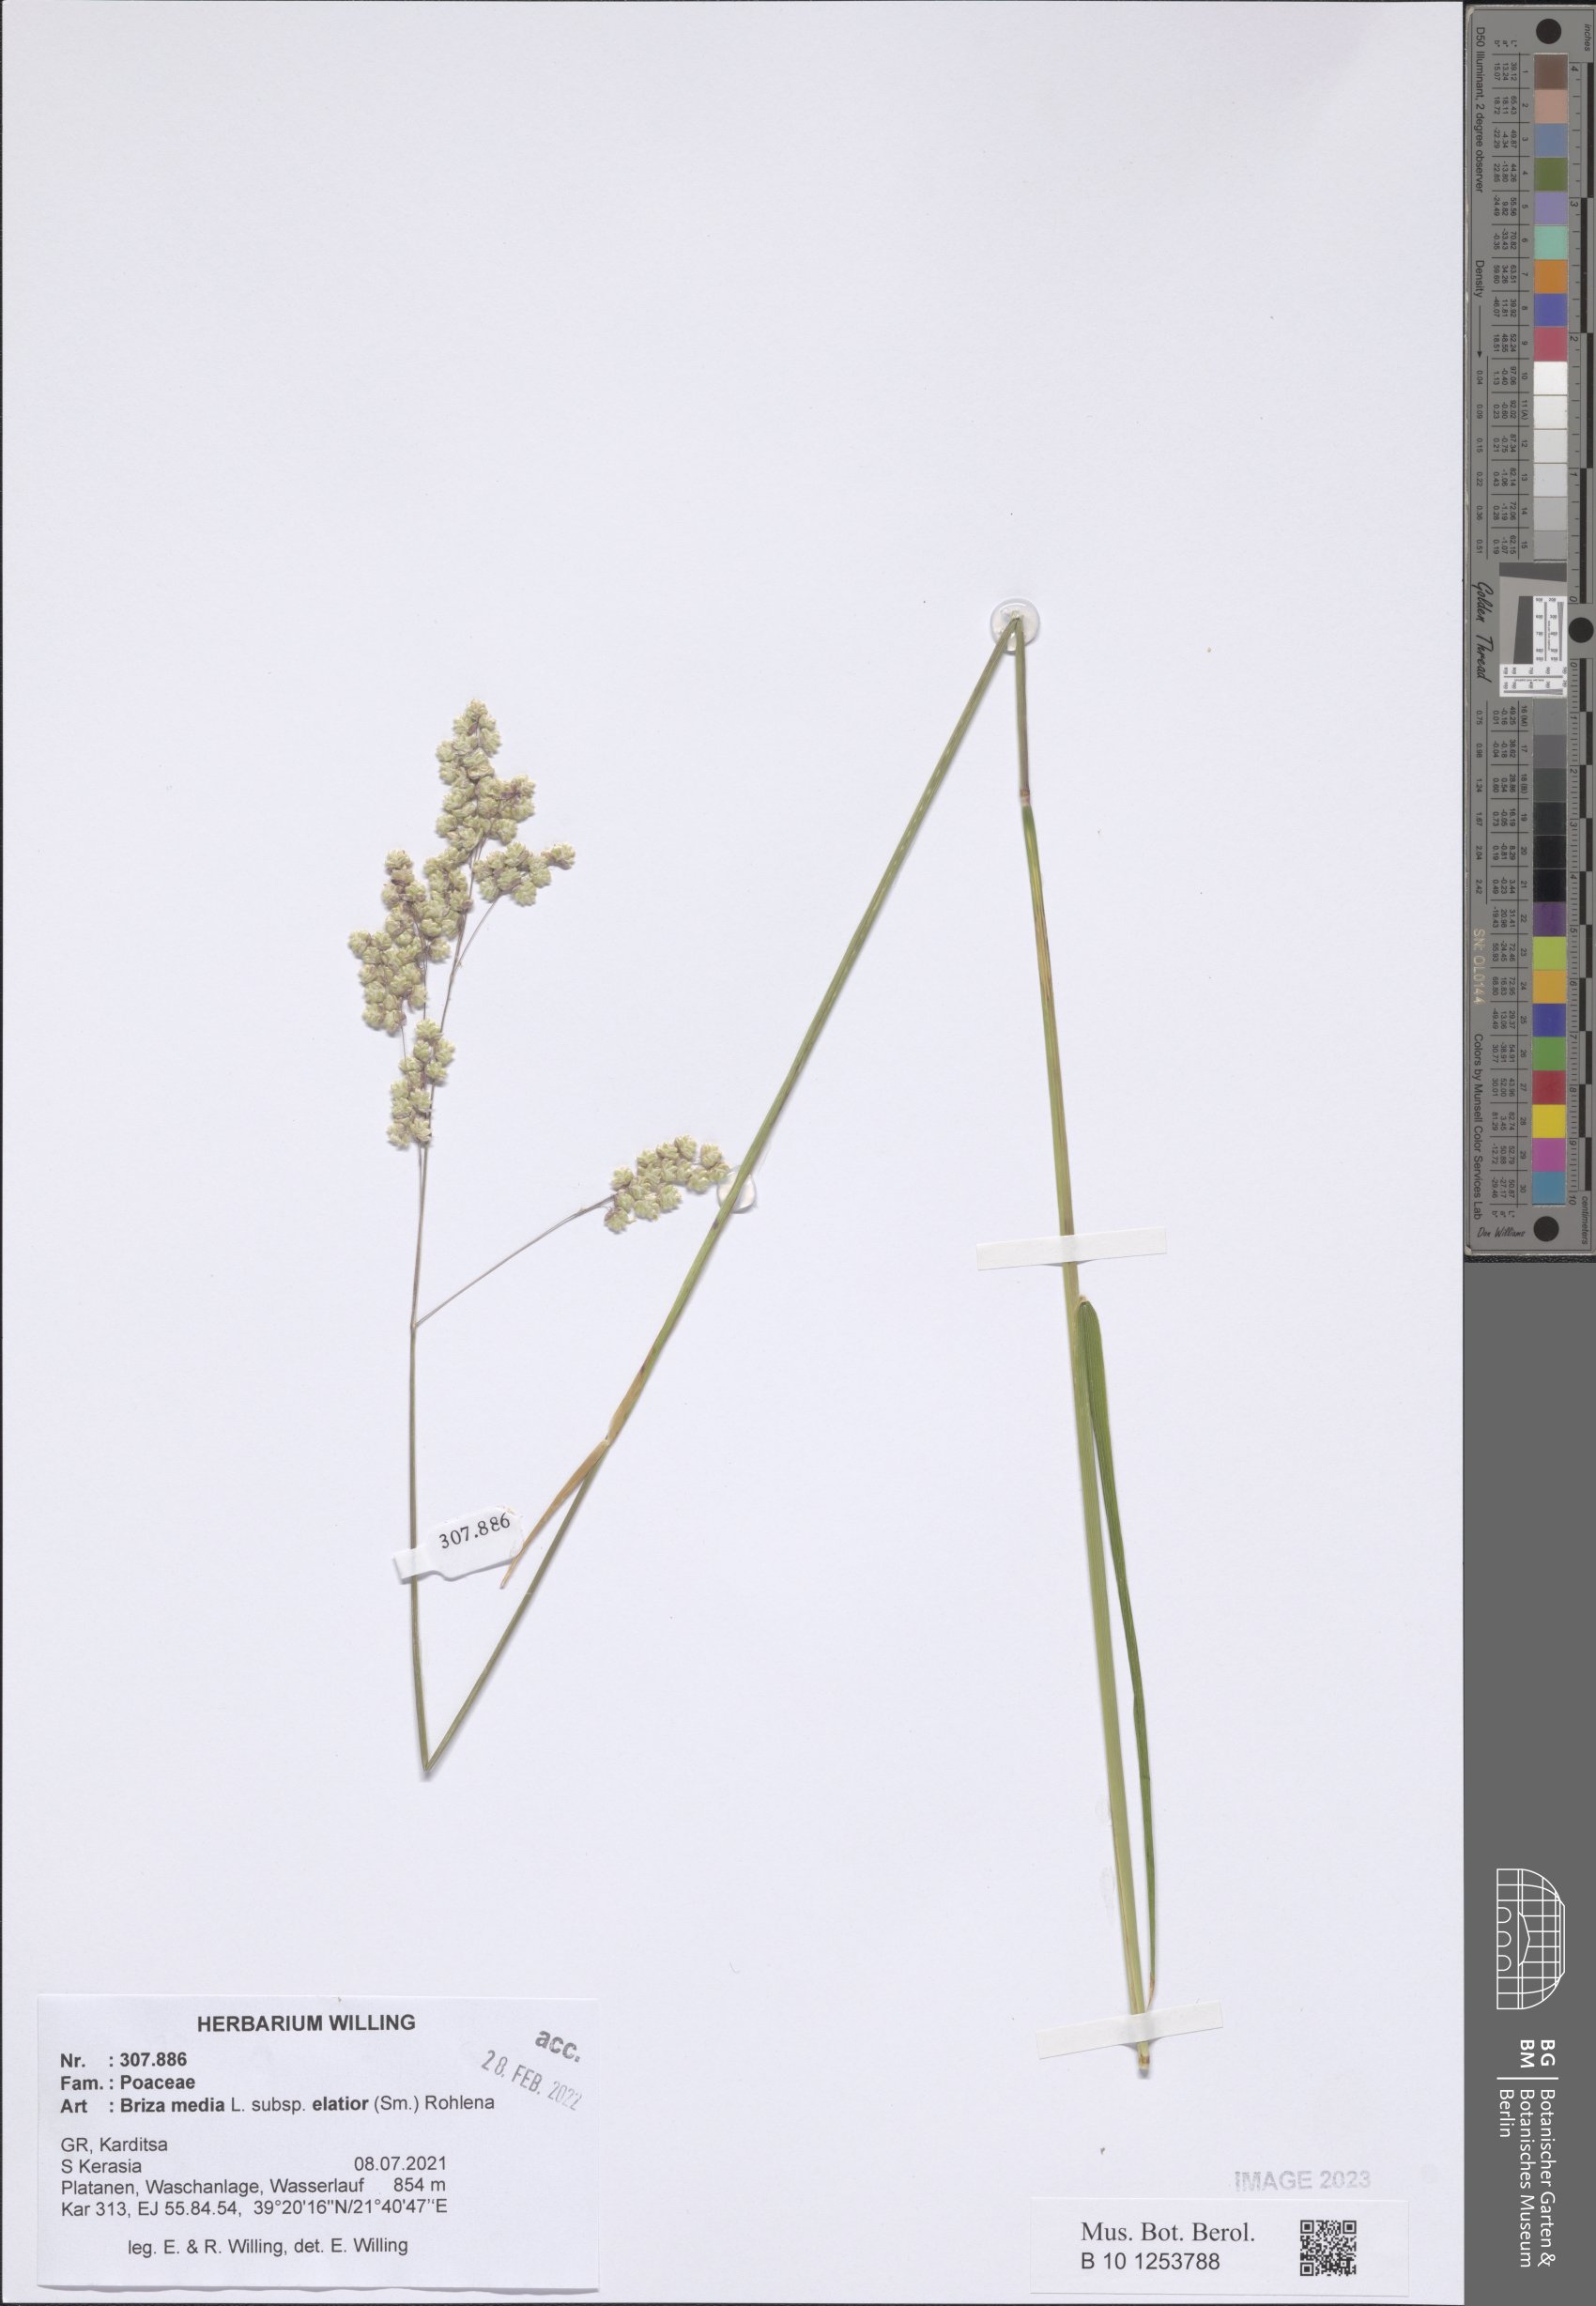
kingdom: Plantae
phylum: Tracheophyta
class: Liliopsida
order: Poales
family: Poaceae
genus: Briza
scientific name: Briza media
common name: Quaking grass
